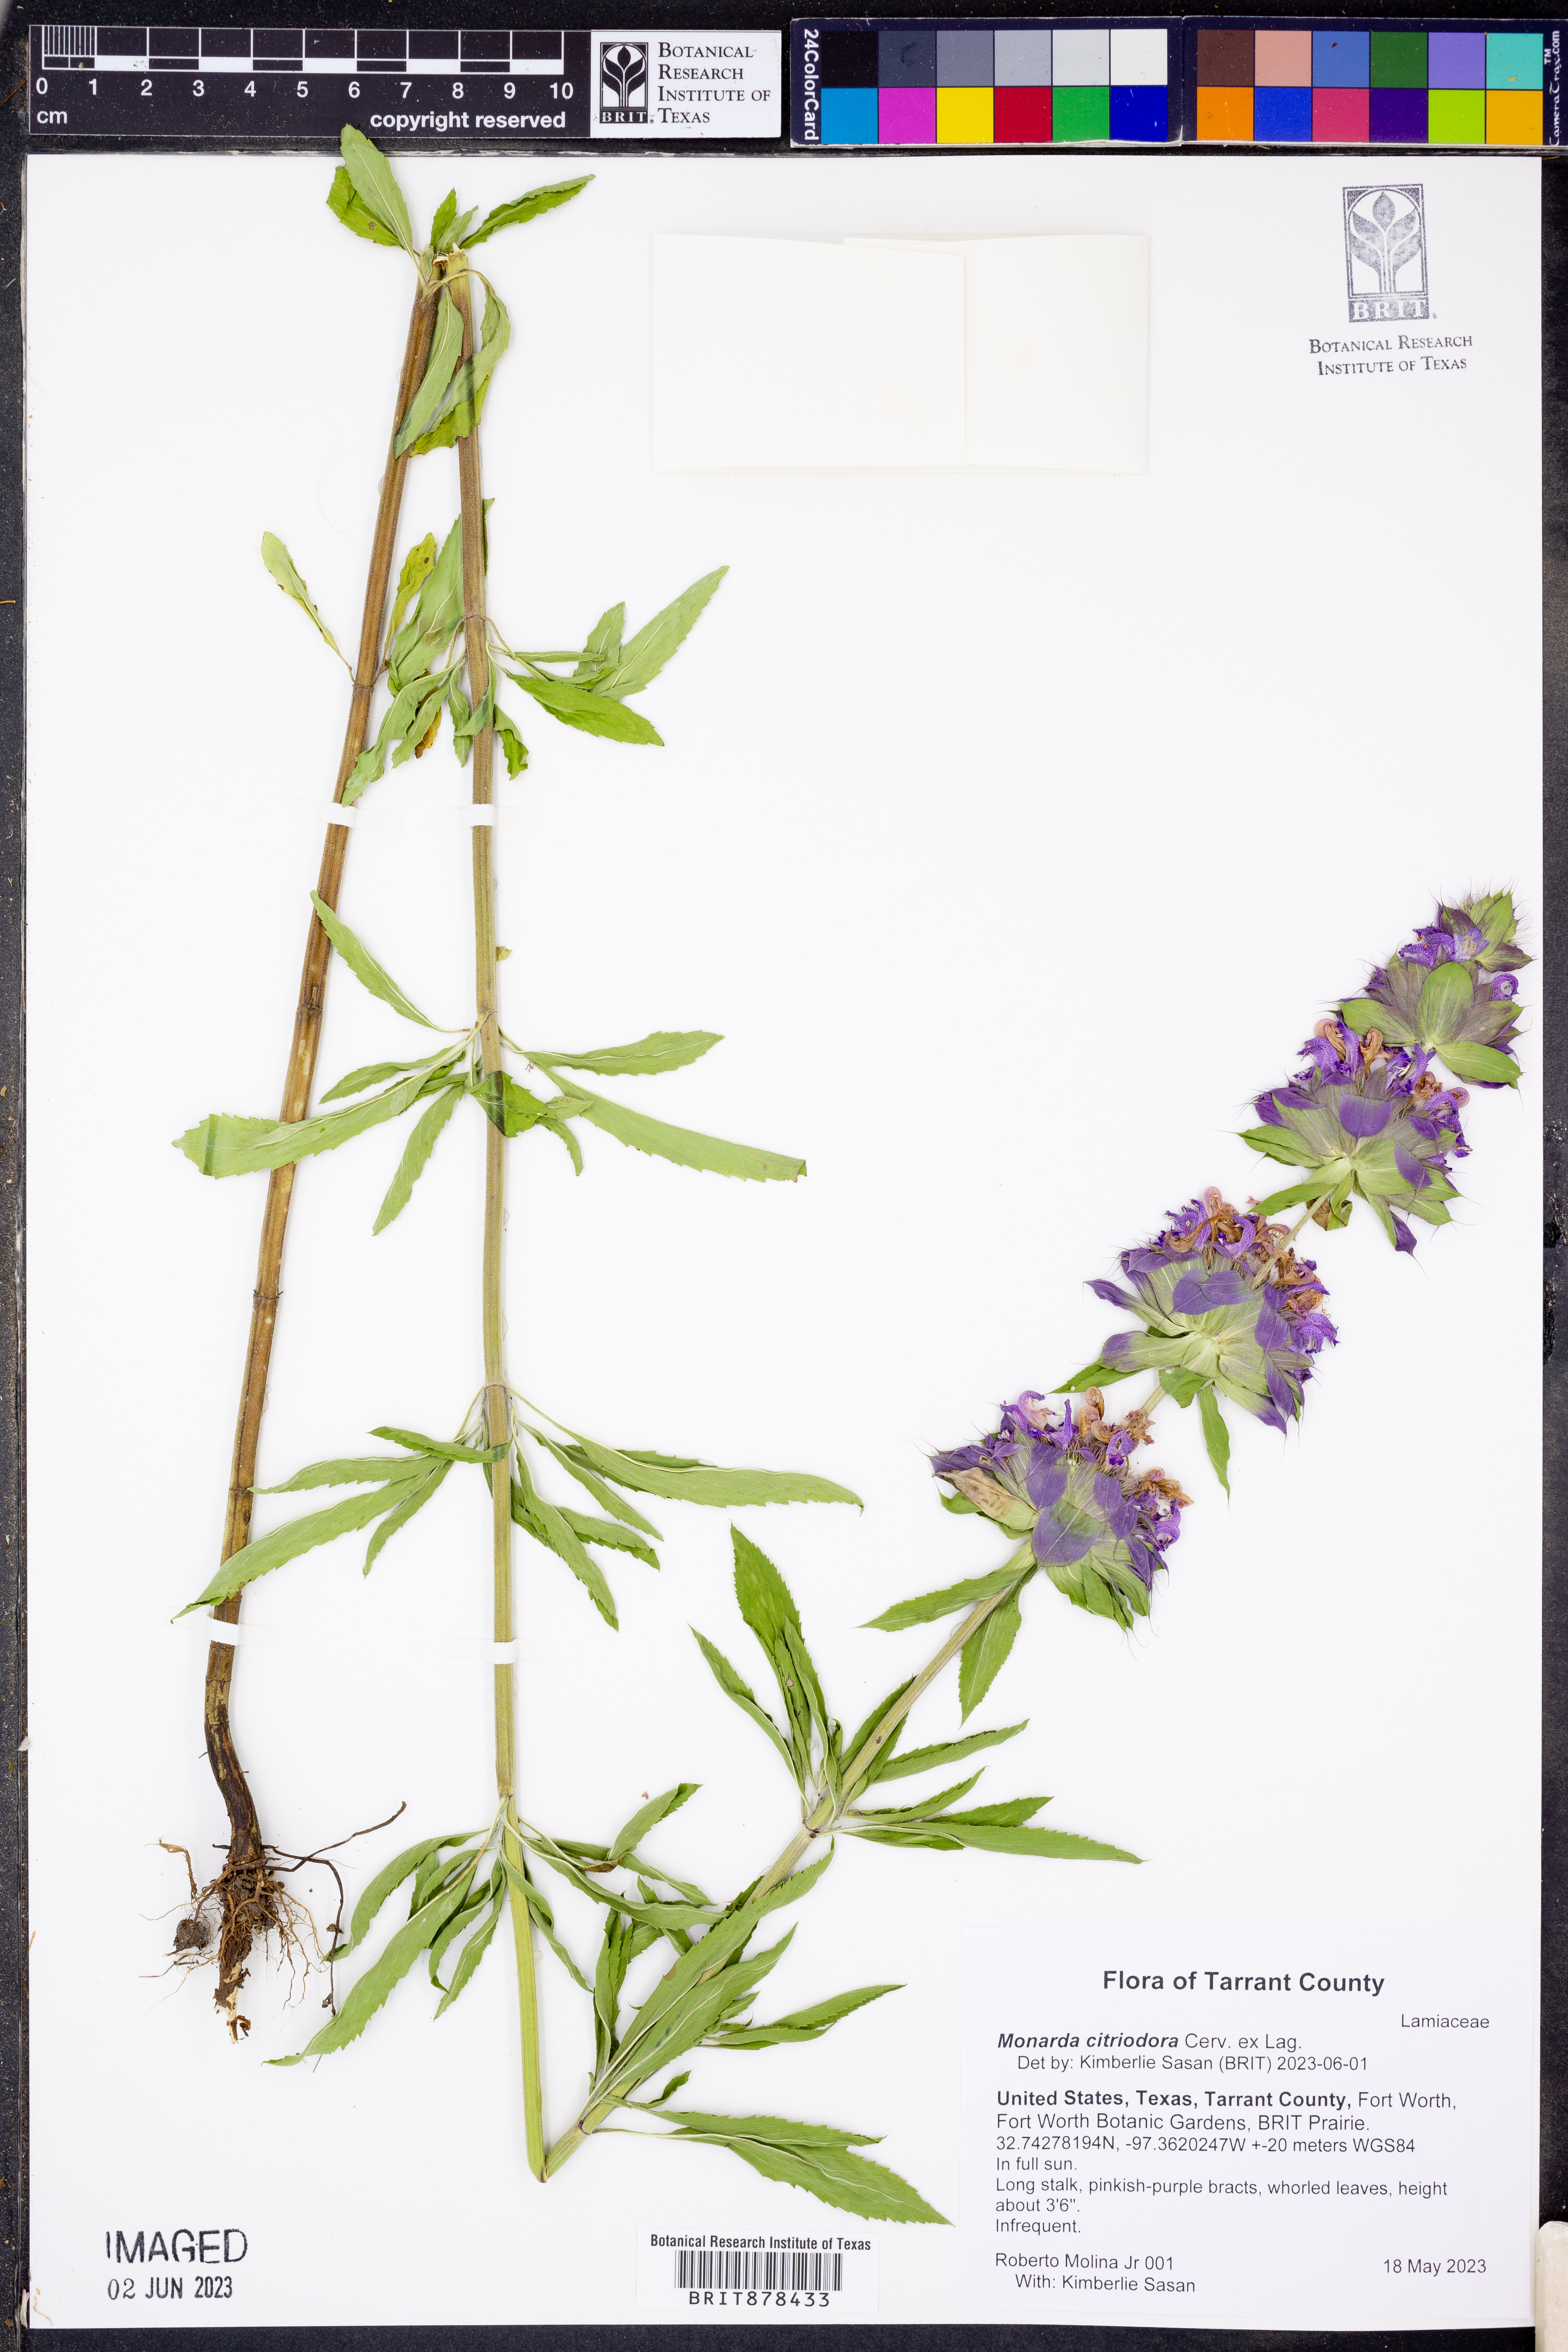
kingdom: Plantae
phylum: Tracheophyta
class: Magnoliopsida
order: Lamiales
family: Lamiaceae
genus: Monarda
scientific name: Monarda citriodora
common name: Lemon beebalm
